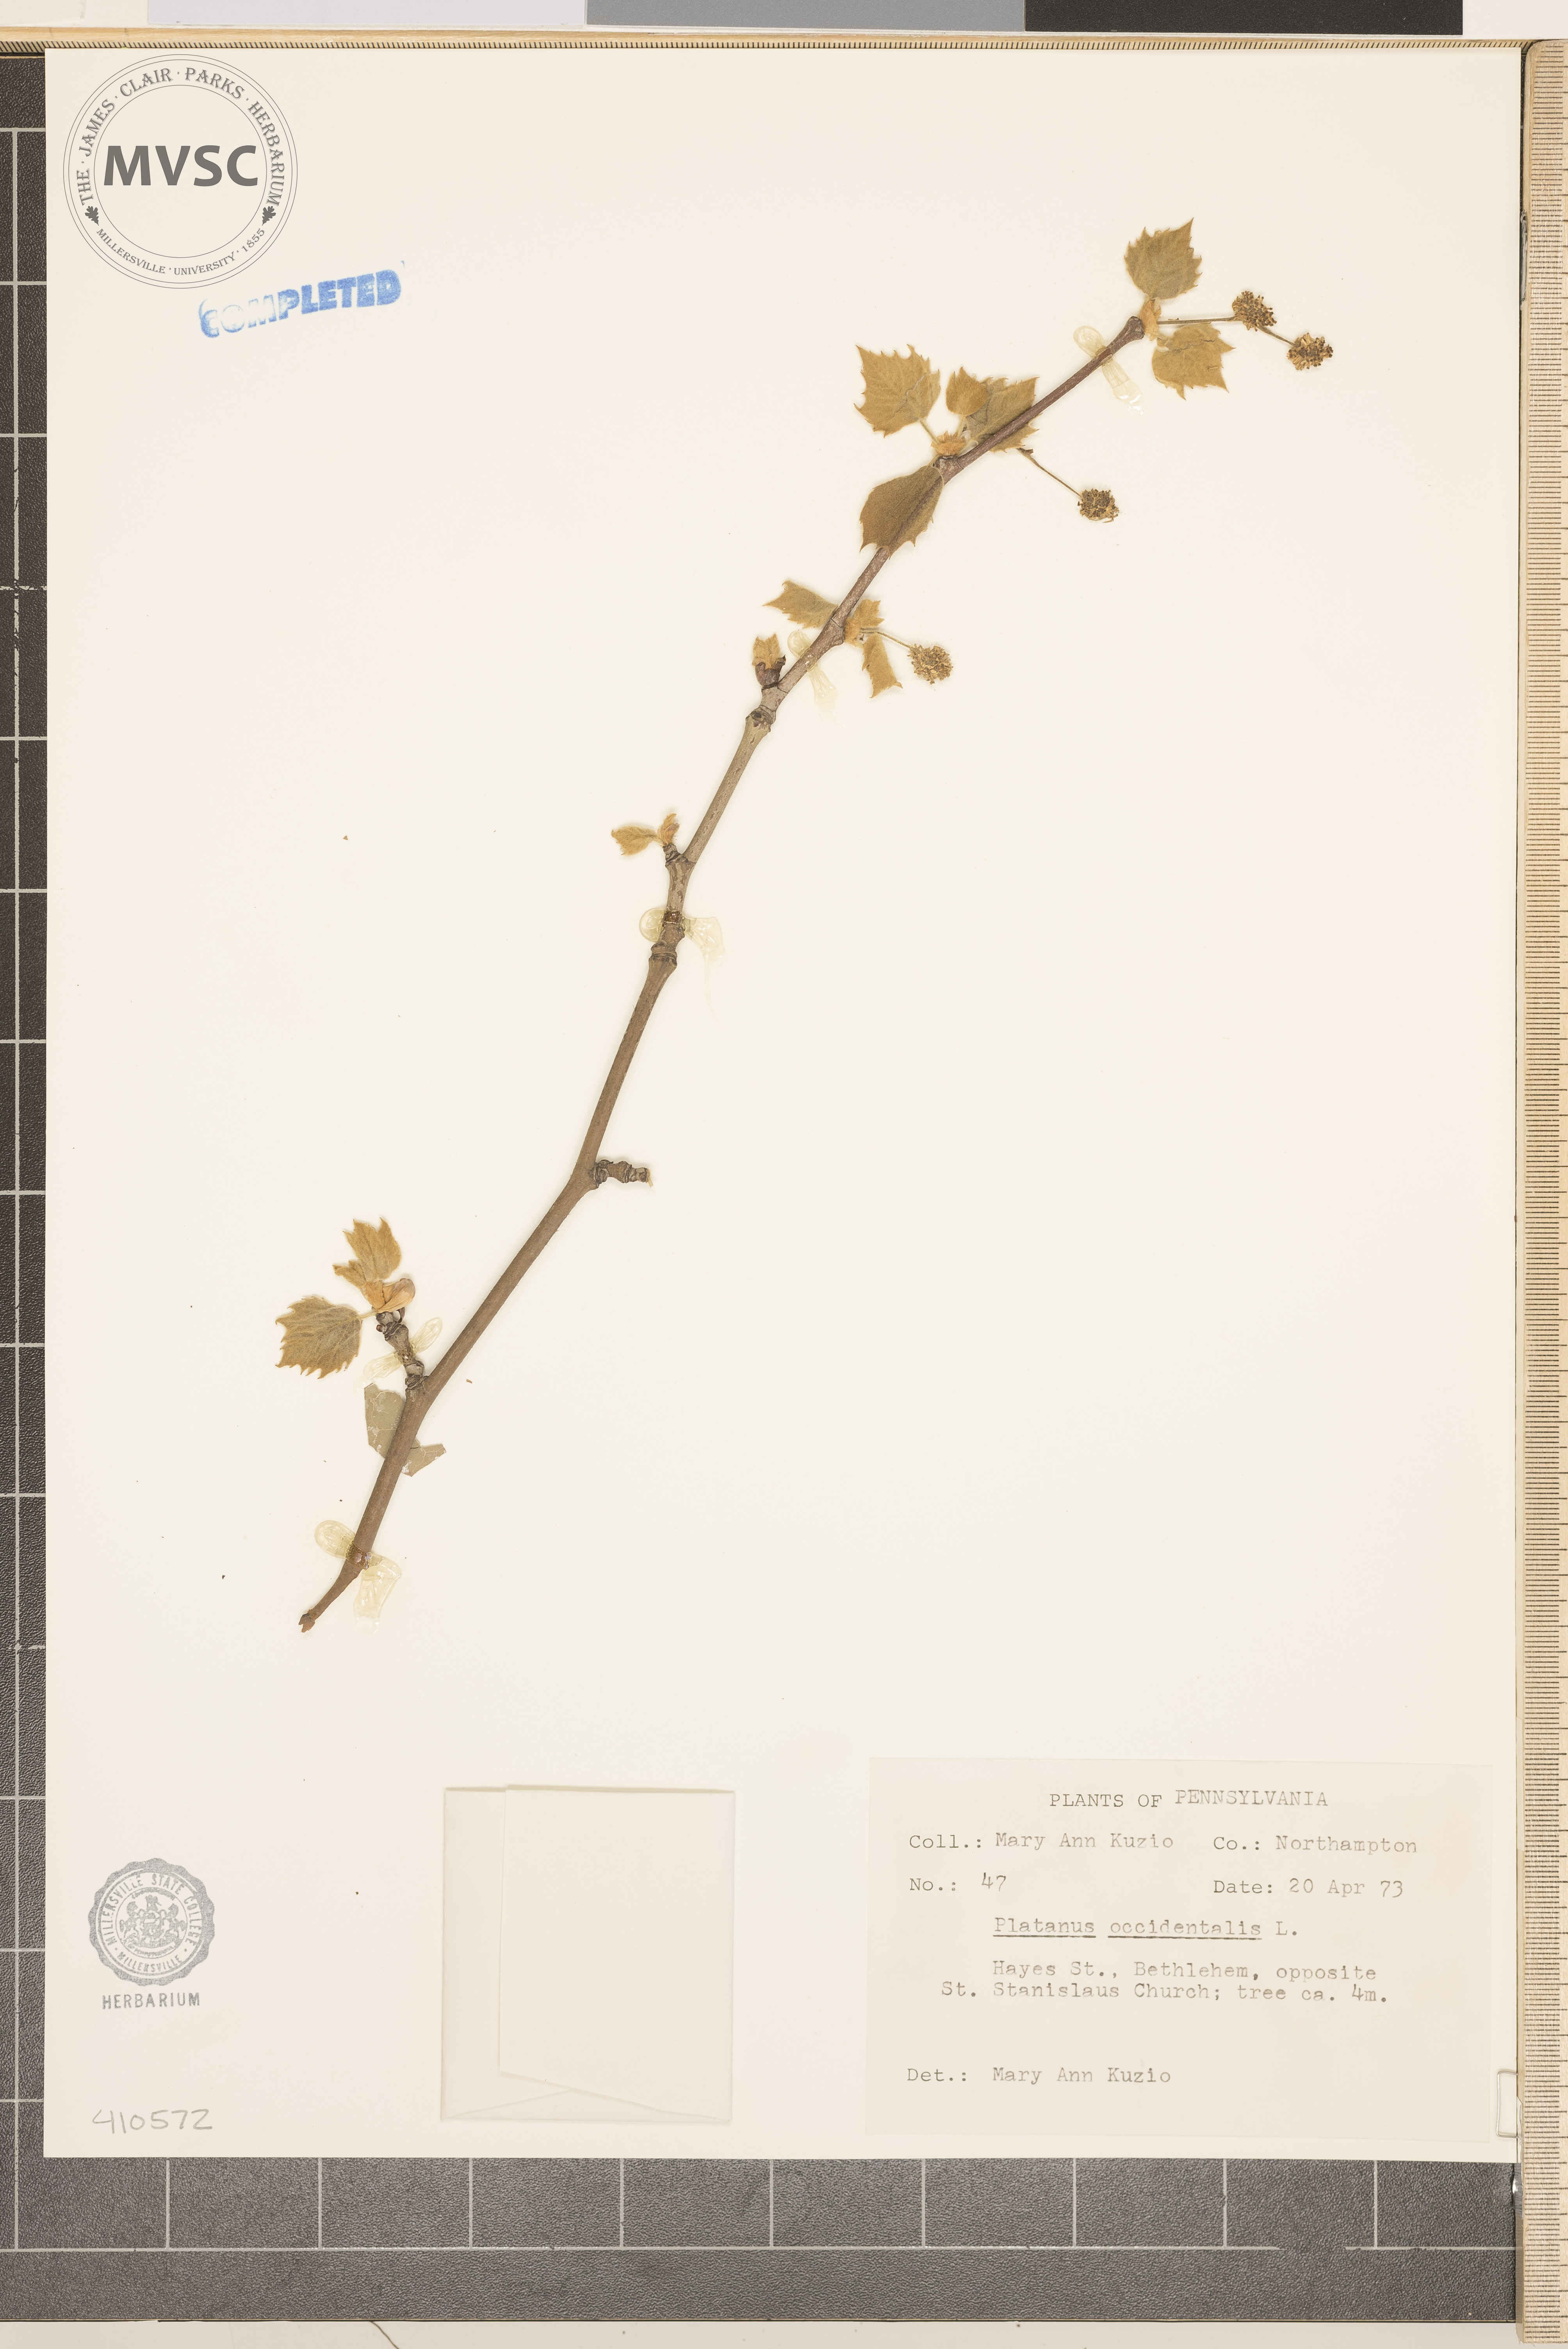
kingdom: Plantae
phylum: Tracheophyta
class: Magnoliopsida
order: Proteales
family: Platanaceae
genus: Platanus
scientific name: Platanus occidentalis
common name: American sycamore
